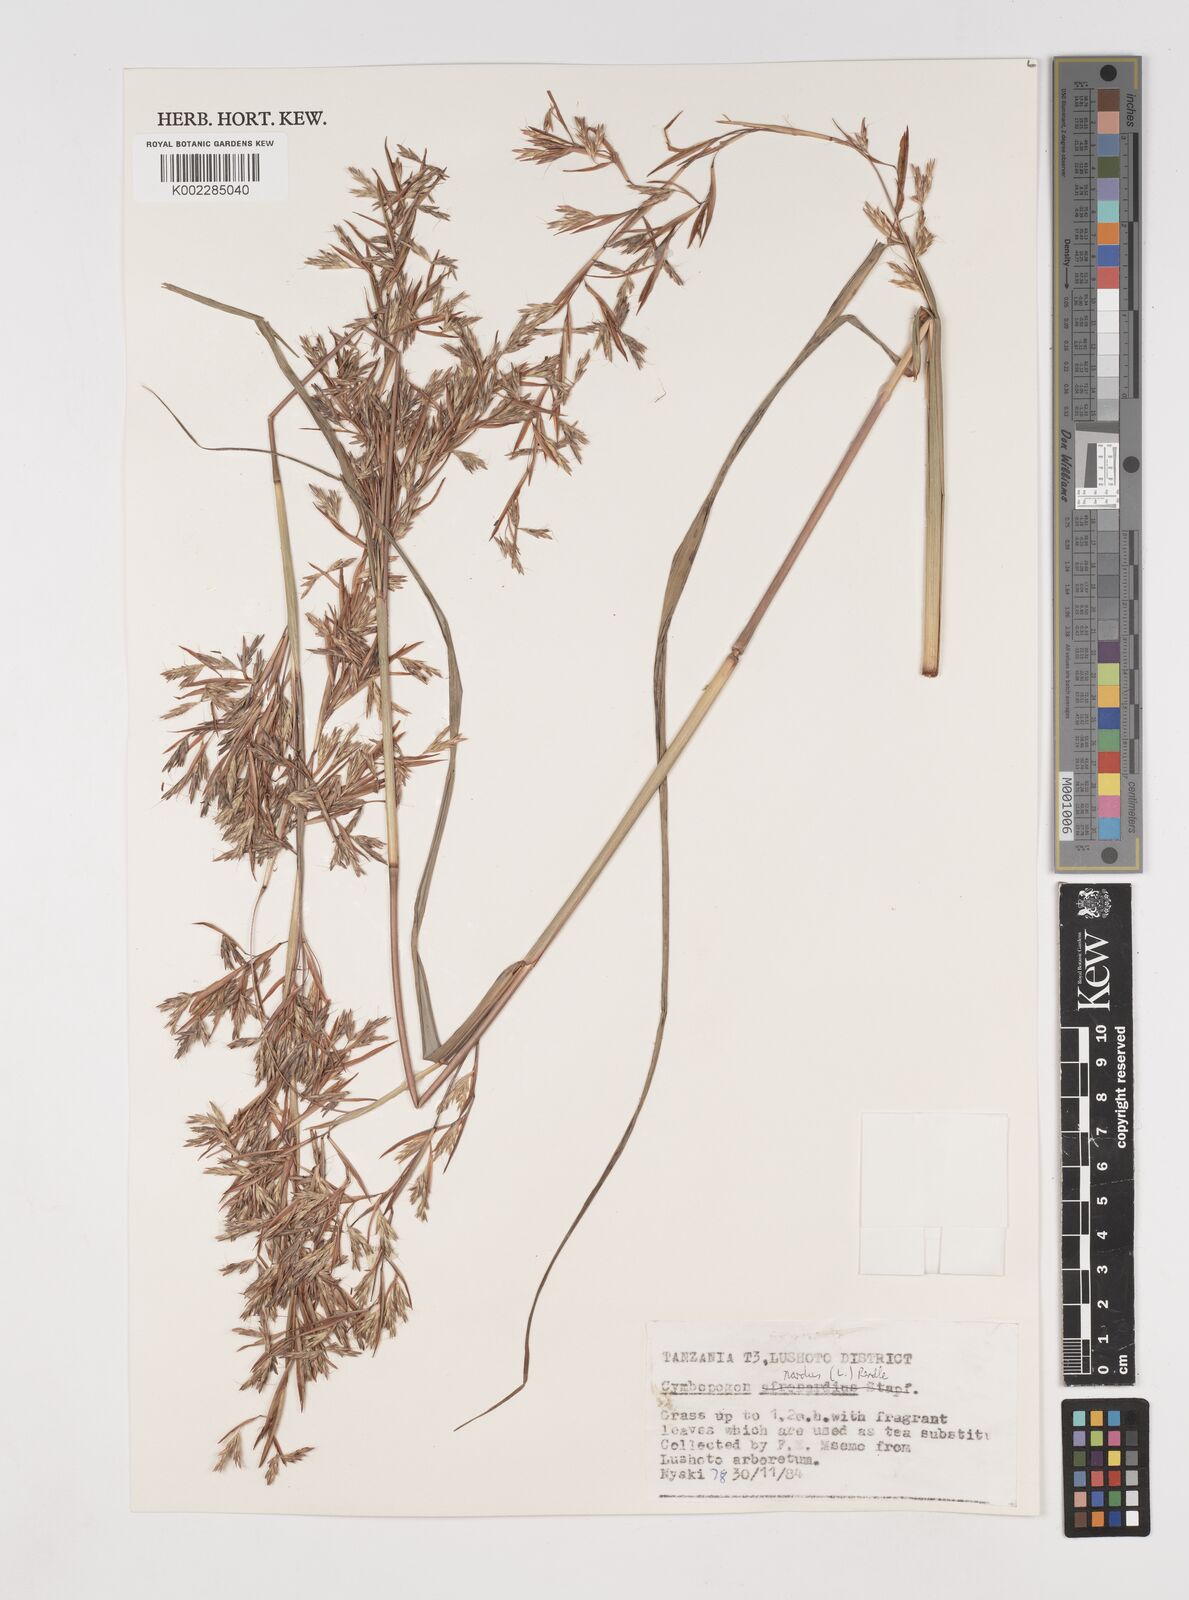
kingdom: Plantae
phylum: Tracheophyta
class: Liliopsida
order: Poales
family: Poaceae
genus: Cymbopogon
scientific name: Cymbopogon nardus
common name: Giant turpentine grass
